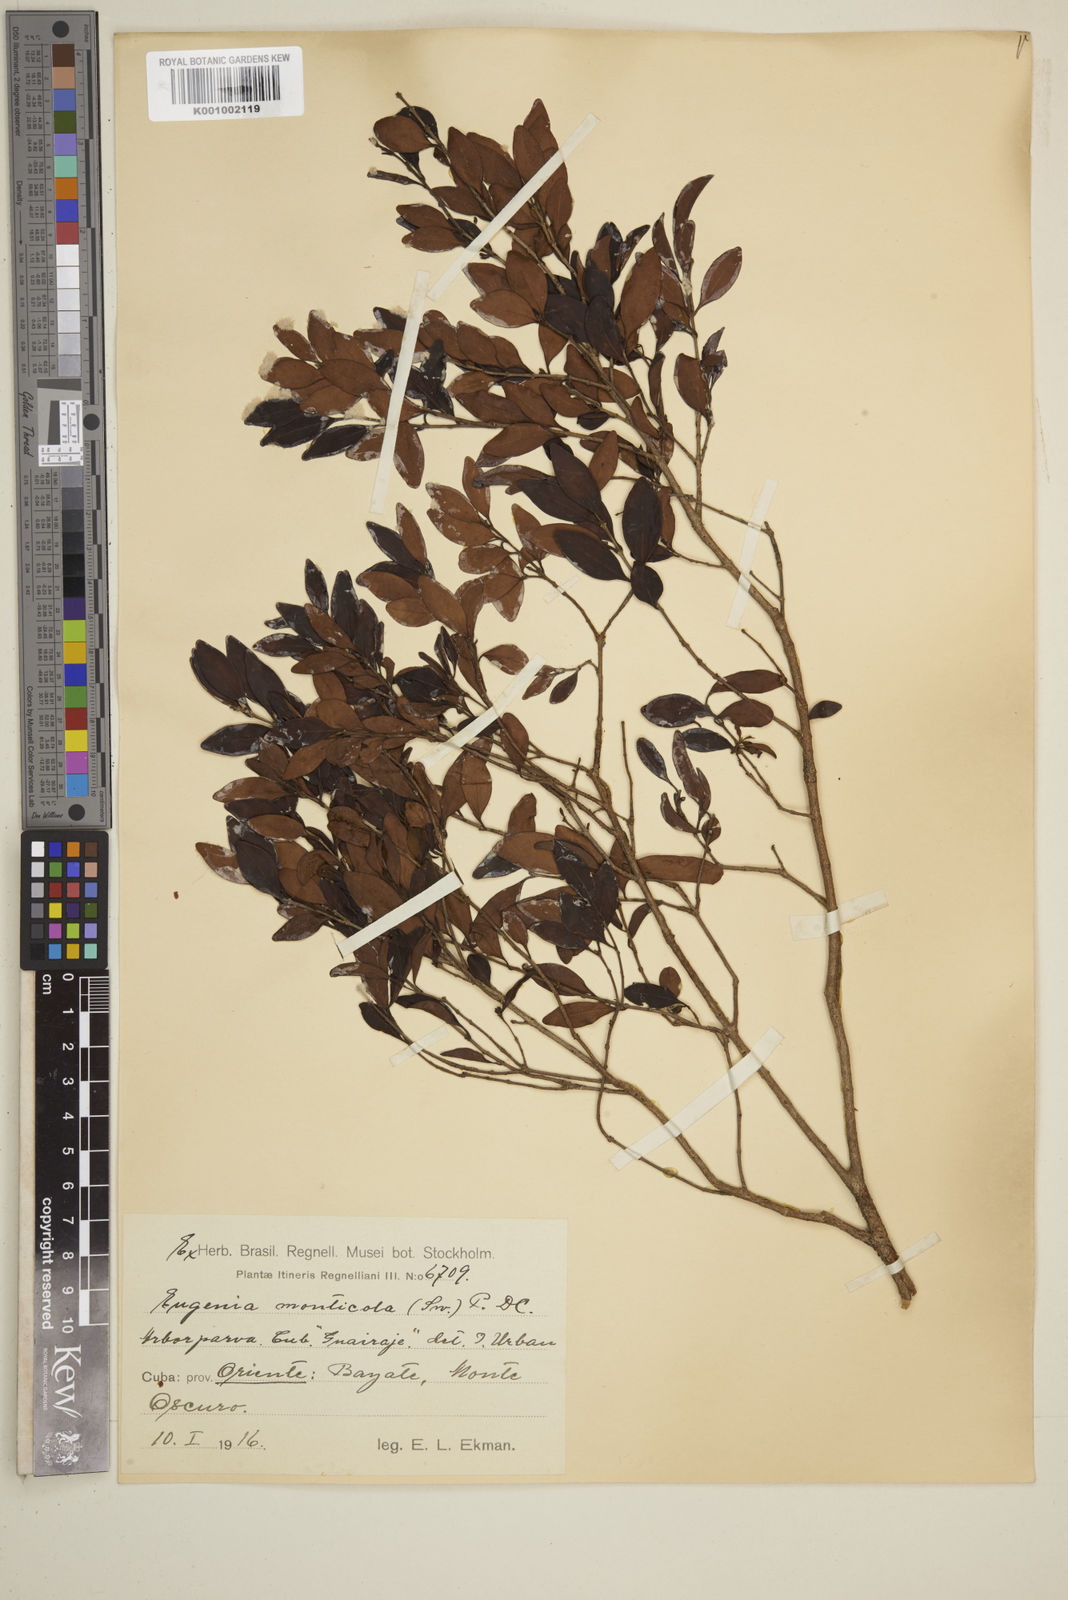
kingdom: Plantae
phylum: Tracheophyta
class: Magnoliopsida
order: Myrtales
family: Myrtaceae
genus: Eugenia
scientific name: Eugenia monticola
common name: Birds berry
